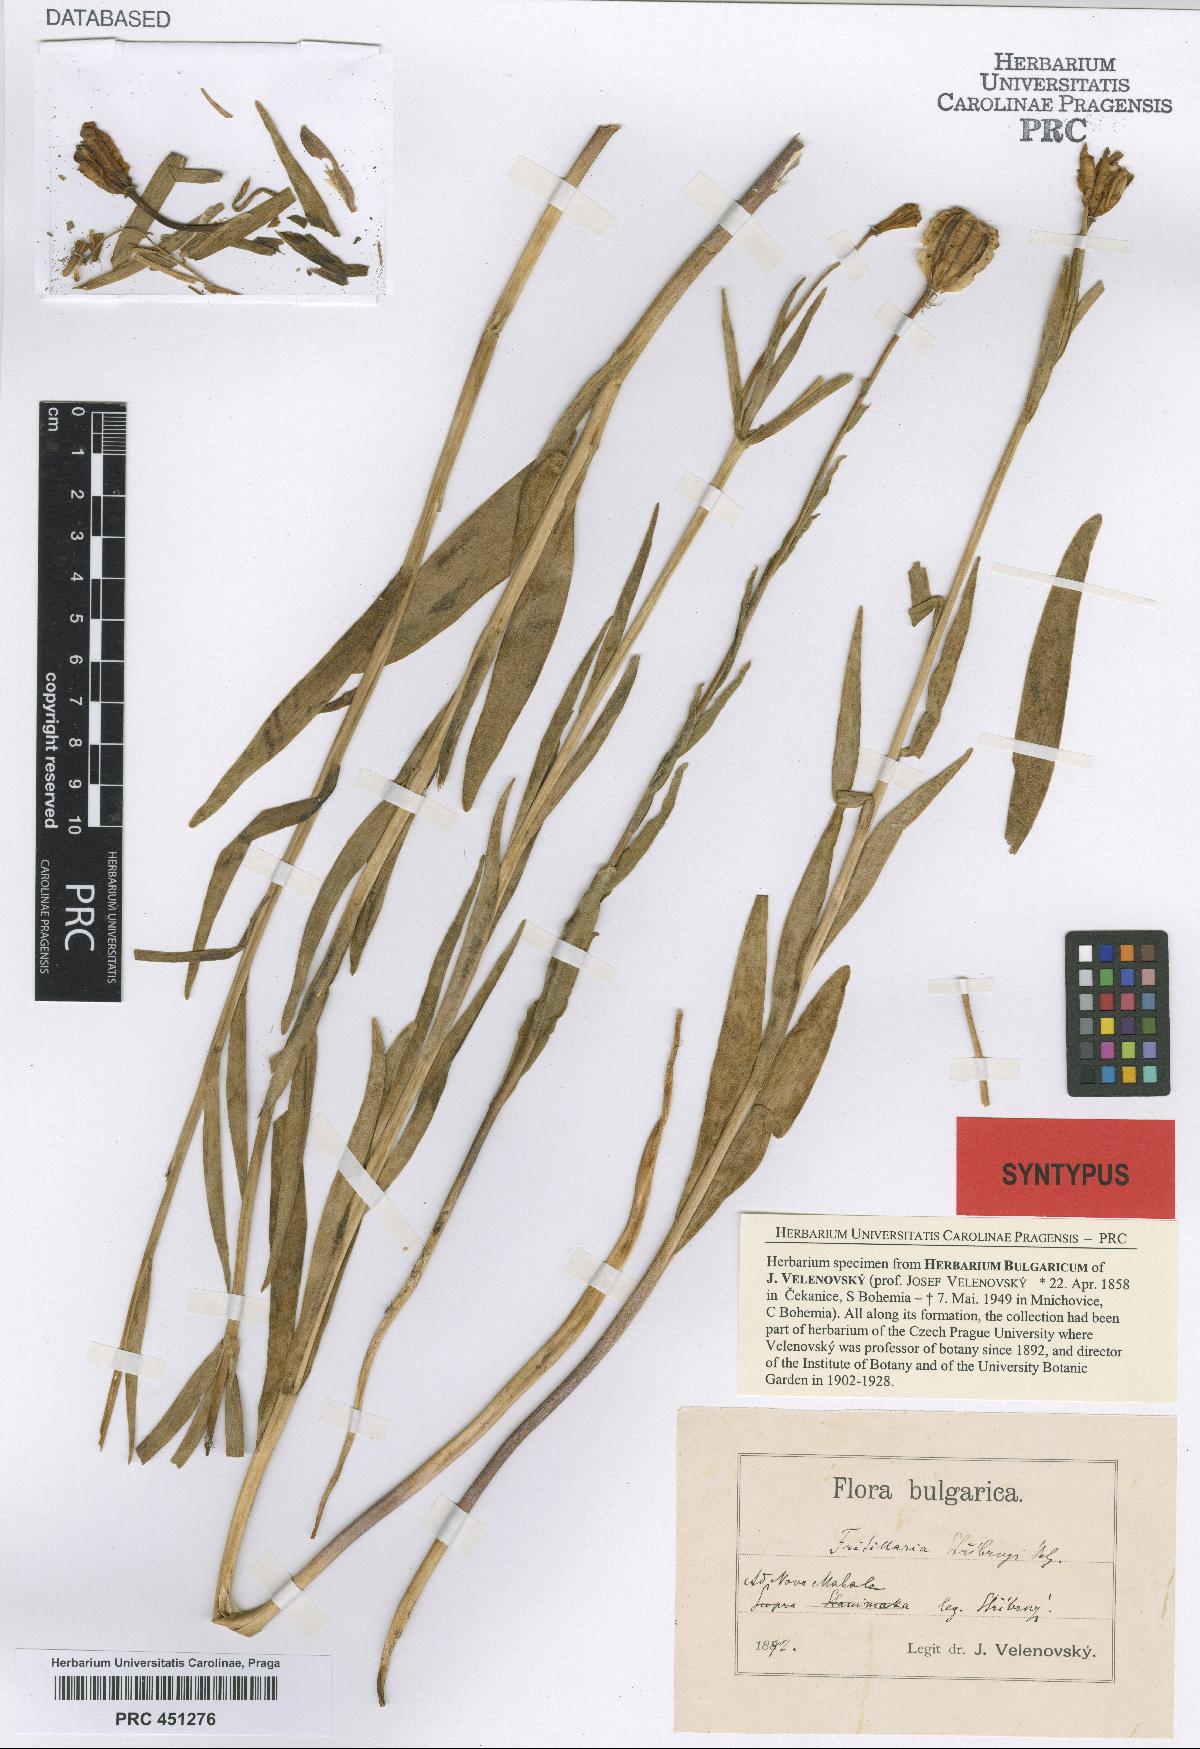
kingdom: Plantae
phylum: Tracheophyta
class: Liliopsida
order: Liliales
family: Liliaceae
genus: Fritillaria
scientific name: Fritillaria stribrnyi
